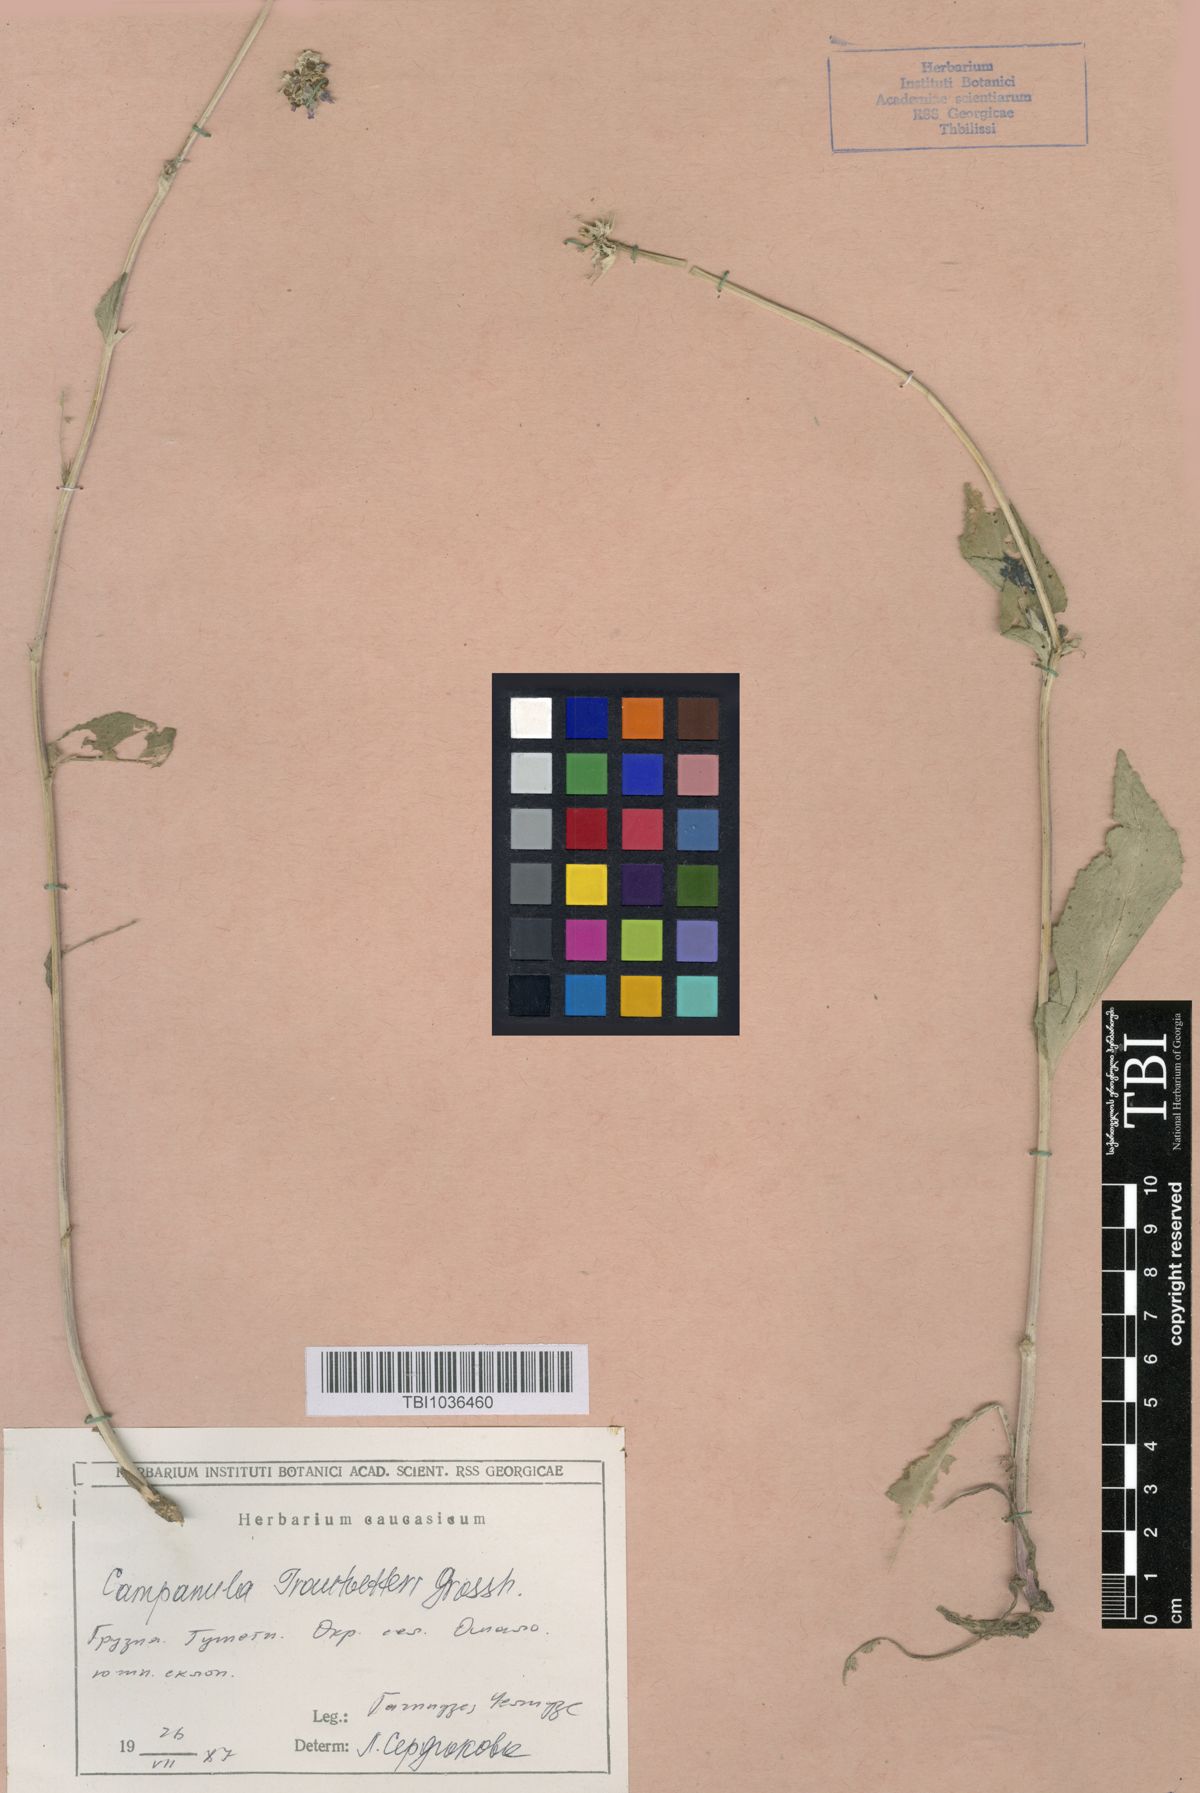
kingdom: Plantae
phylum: Tracheophyta
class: Magnoliopsida
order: Asterales
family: Campanulaceae
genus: Campanula
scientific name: Campanula glomerata
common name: Clustered bellflower
